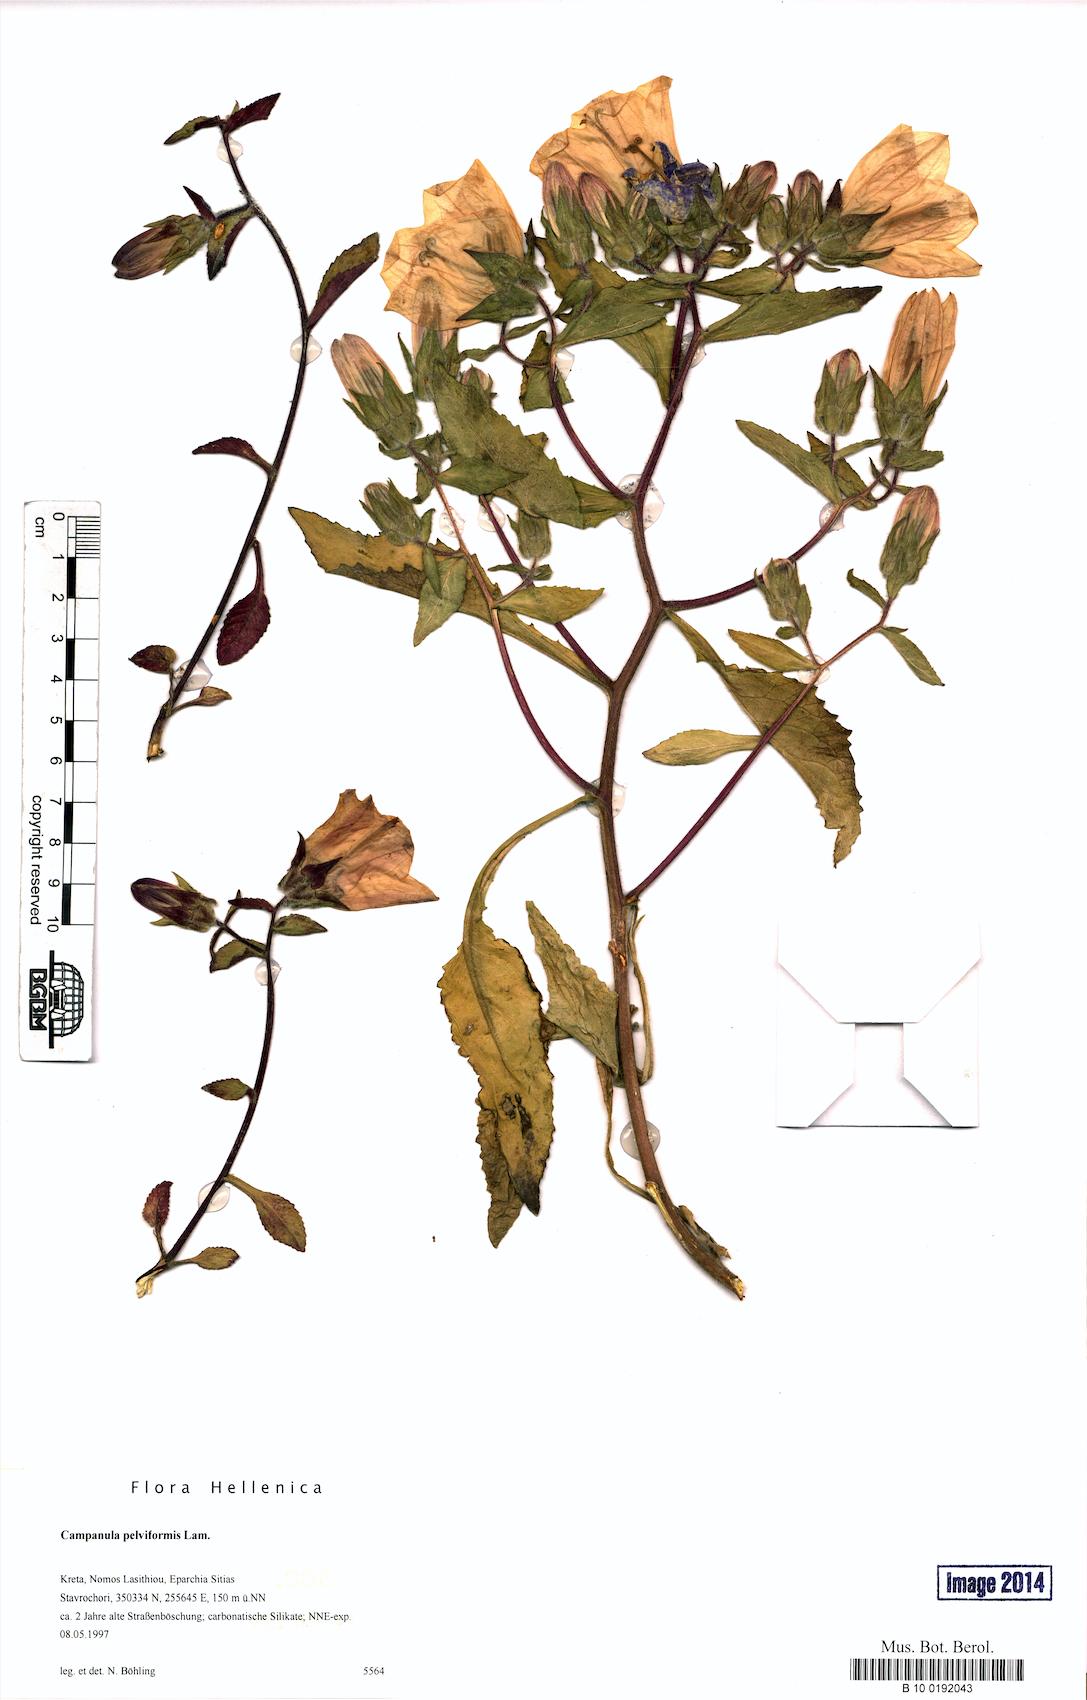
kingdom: Plantae
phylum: Tracheophyta
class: Magnoliopsida
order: Asterales
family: Campanulaceae
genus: Campanula
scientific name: Campanula pelviformis
